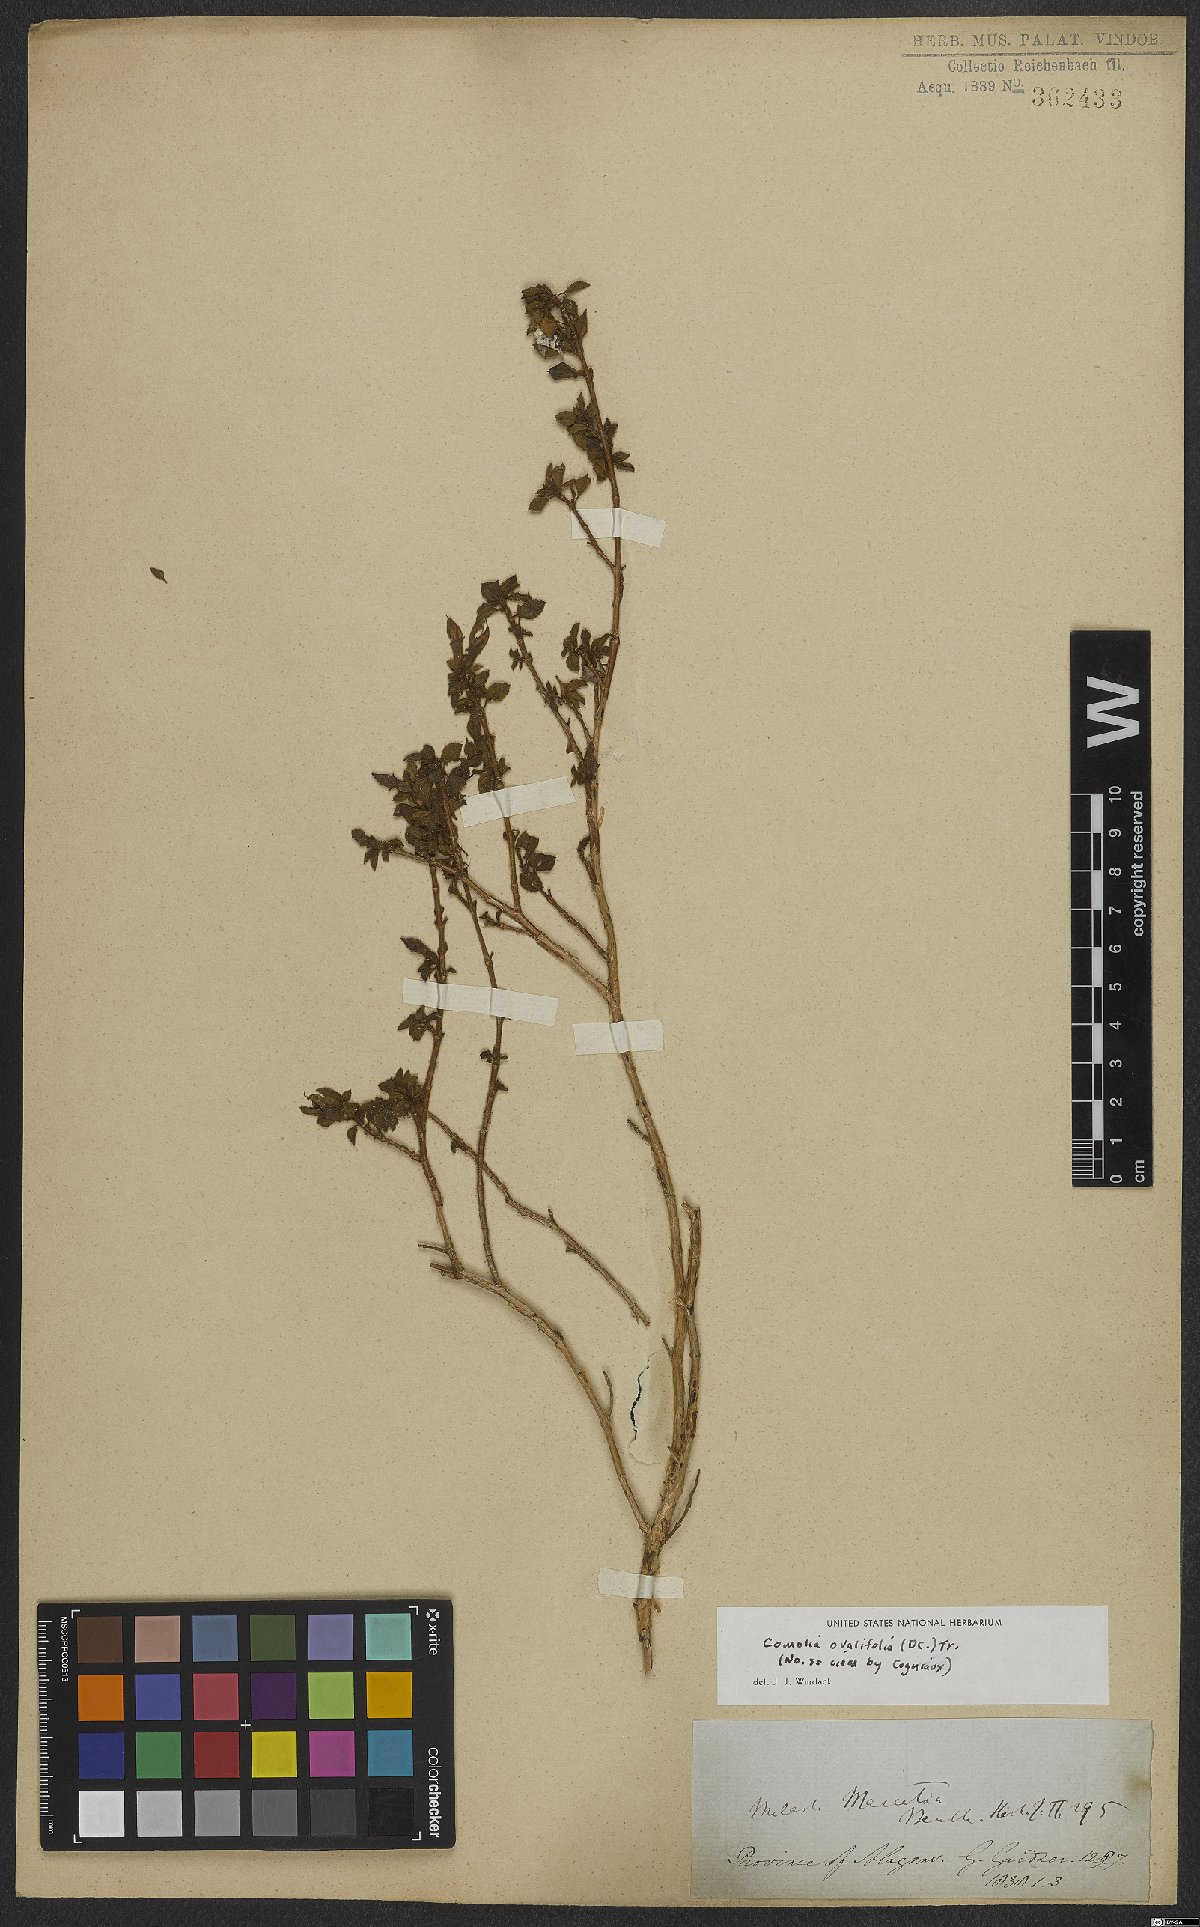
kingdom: Plantae
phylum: Tracheophyta
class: Magnoliopsida
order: Myrtales
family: Melastomataceae
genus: Comolia
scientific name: Comolia ovalifolia
